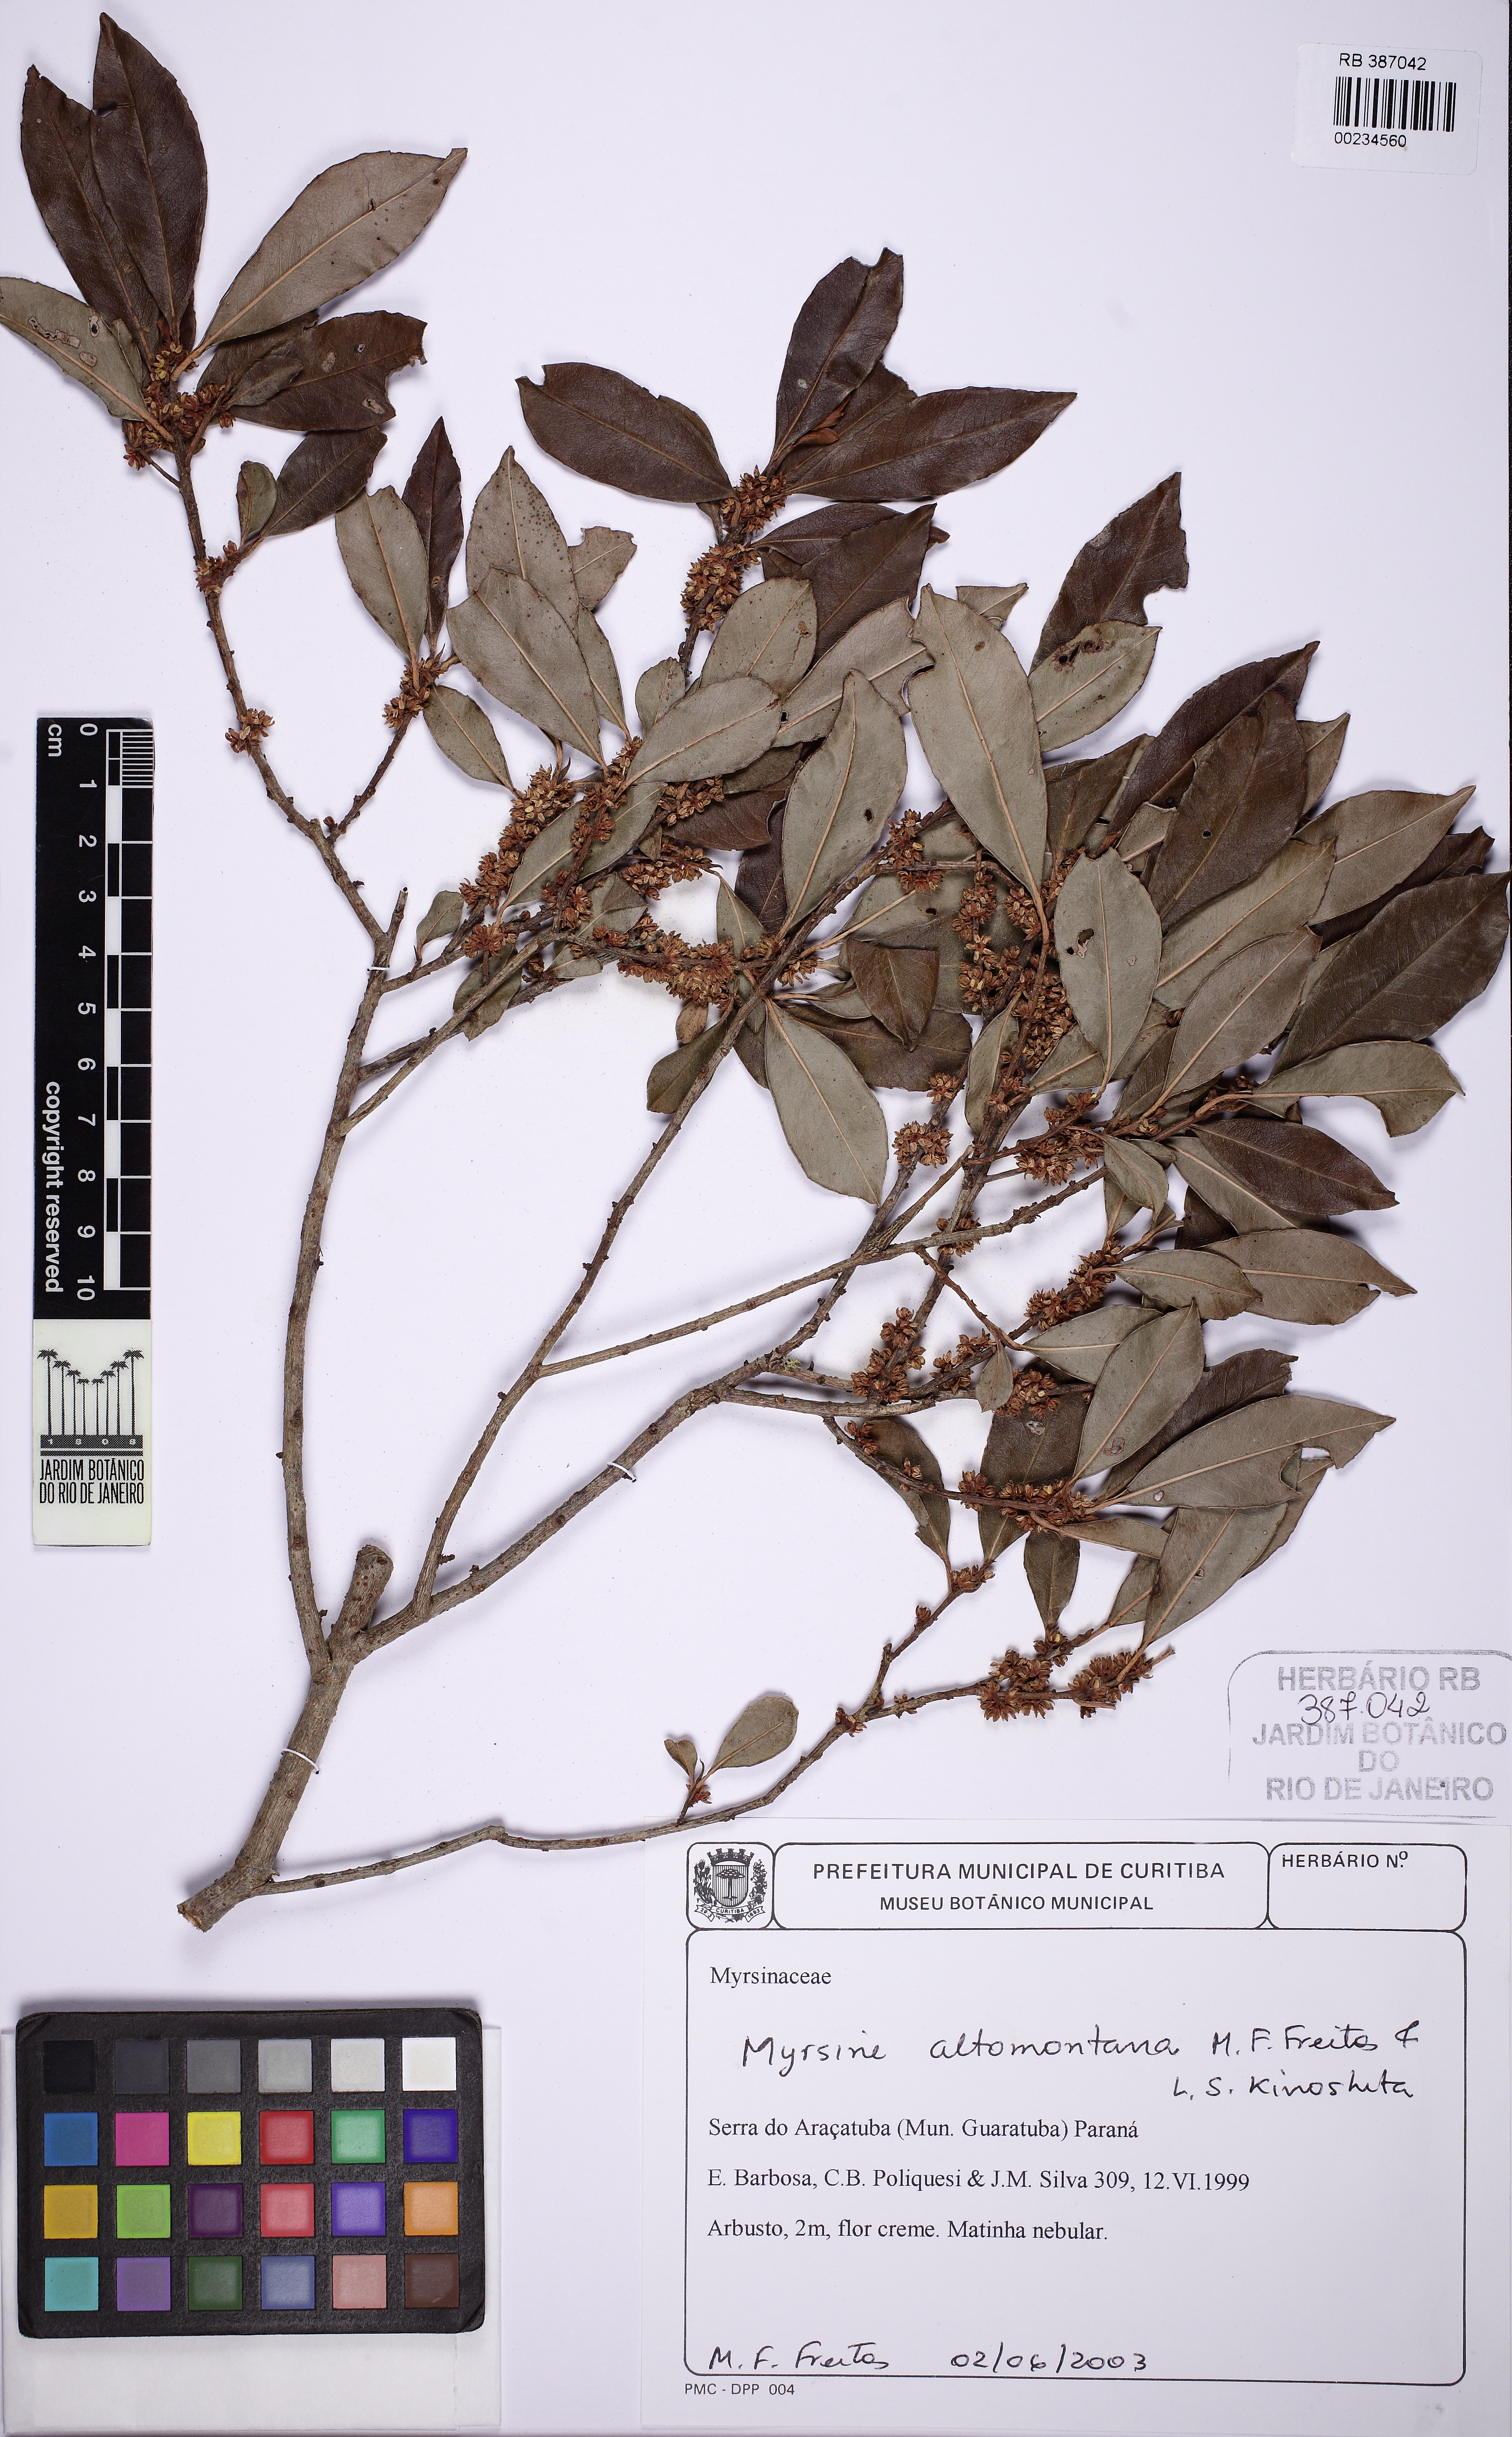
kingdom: Plantae
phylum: Tracheophyta
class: Magnoliopsida
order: Ericales
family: Primulaceae
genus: Myrsine
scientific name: Myrsine altomontana
